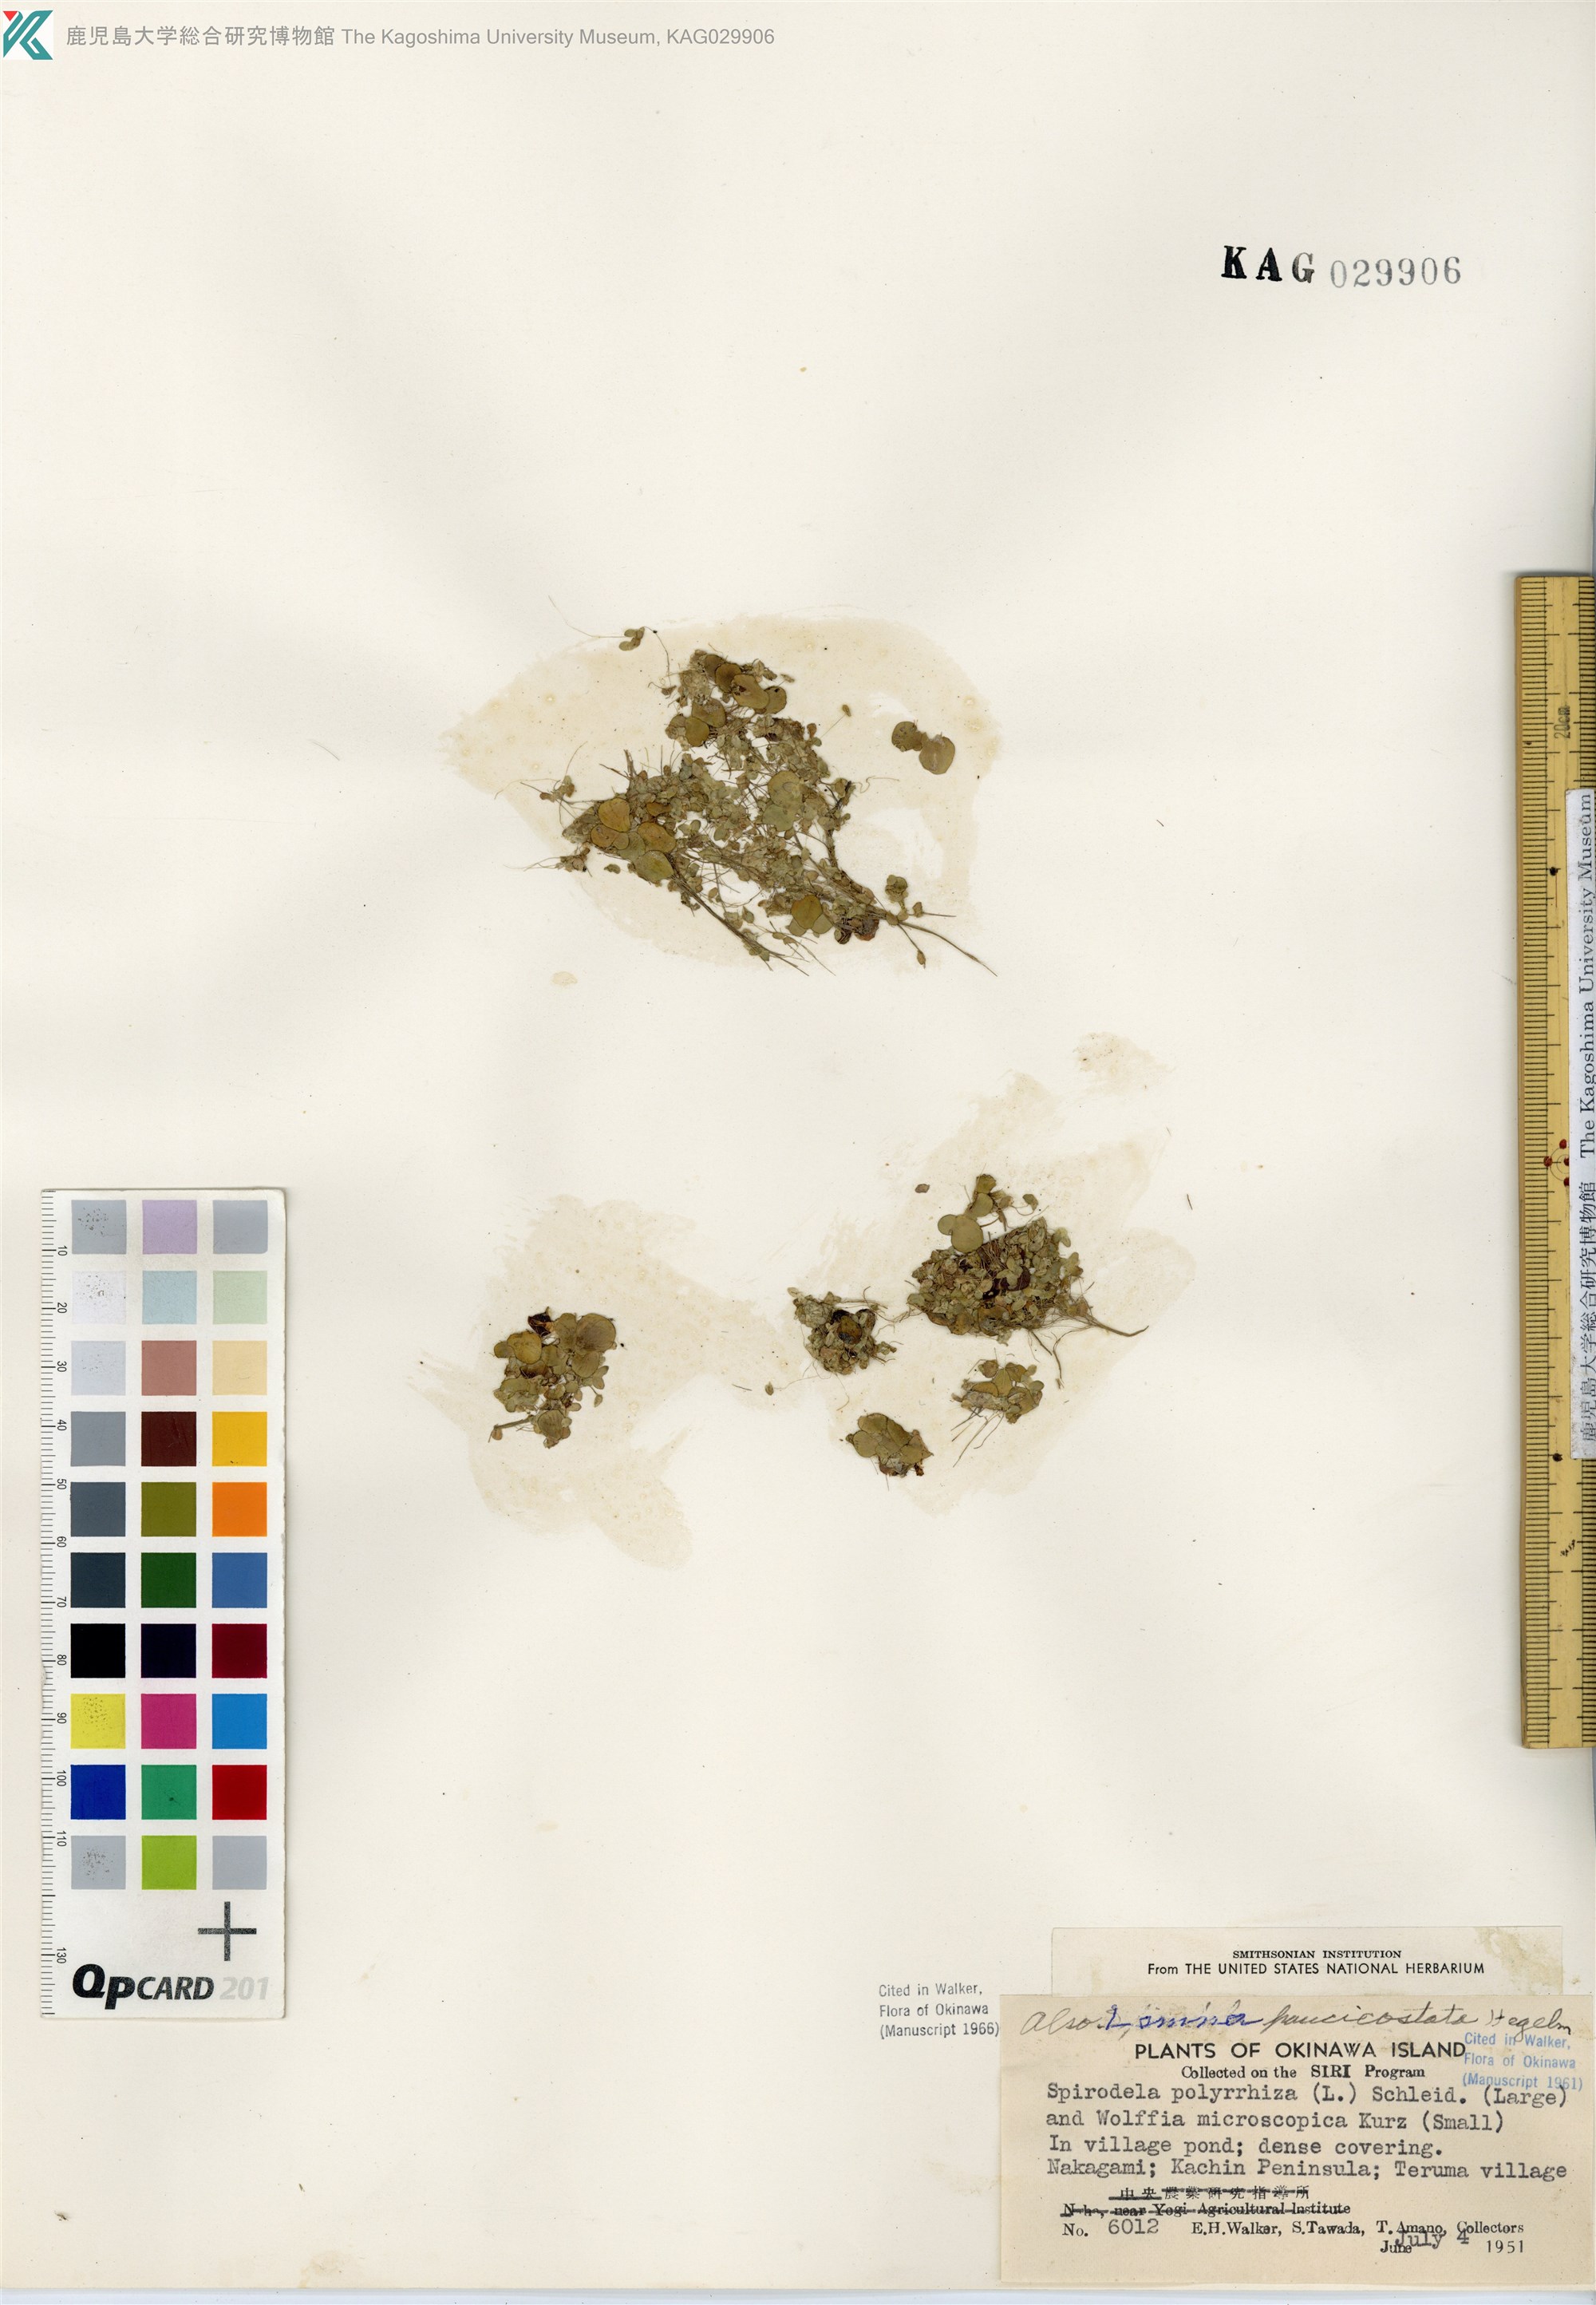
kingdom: Plantae
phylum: Tracheophyta
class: Liliopsida
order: Alismatales
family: Araceae
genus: Lemna
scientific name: Lemna aequinoctialis
